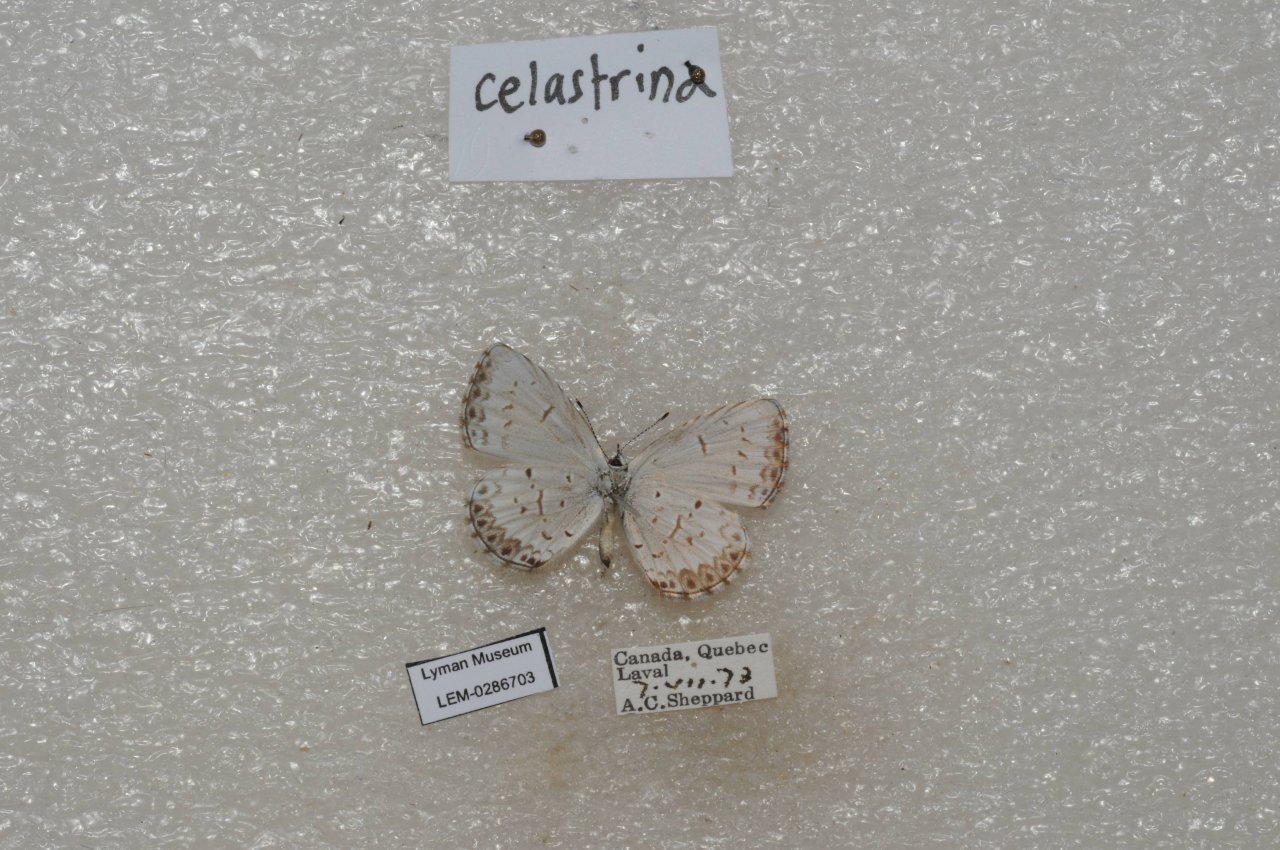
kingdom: Animalia
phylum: Arthropoda
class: Insecta
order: Lepidoptera
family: Lycaenidae
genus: Celastrina
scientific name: Celastrina lucia
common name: Northern Spring Azure
